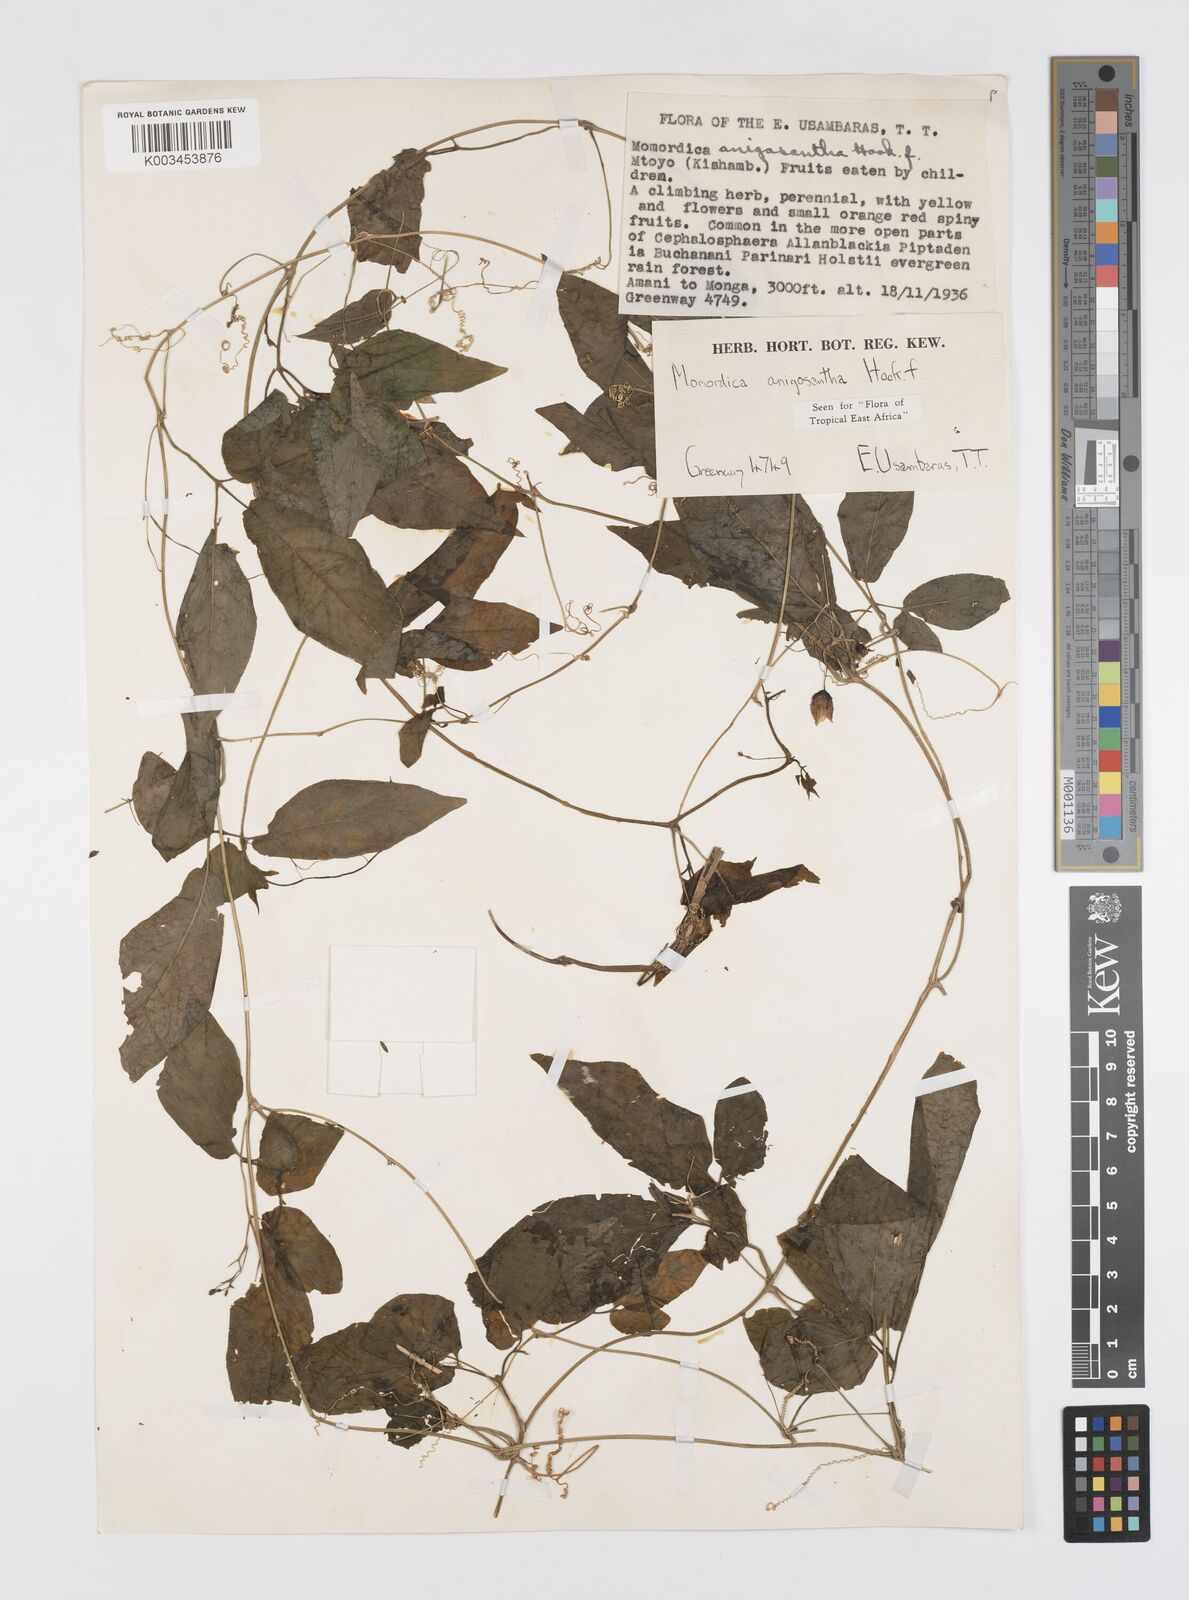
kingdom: Plantae
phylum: Tracheophyta
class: Magnoliopsida
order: Cucurbitales
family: Cucurbitaceae
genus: Momordica
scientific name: Momordica anigosantha
